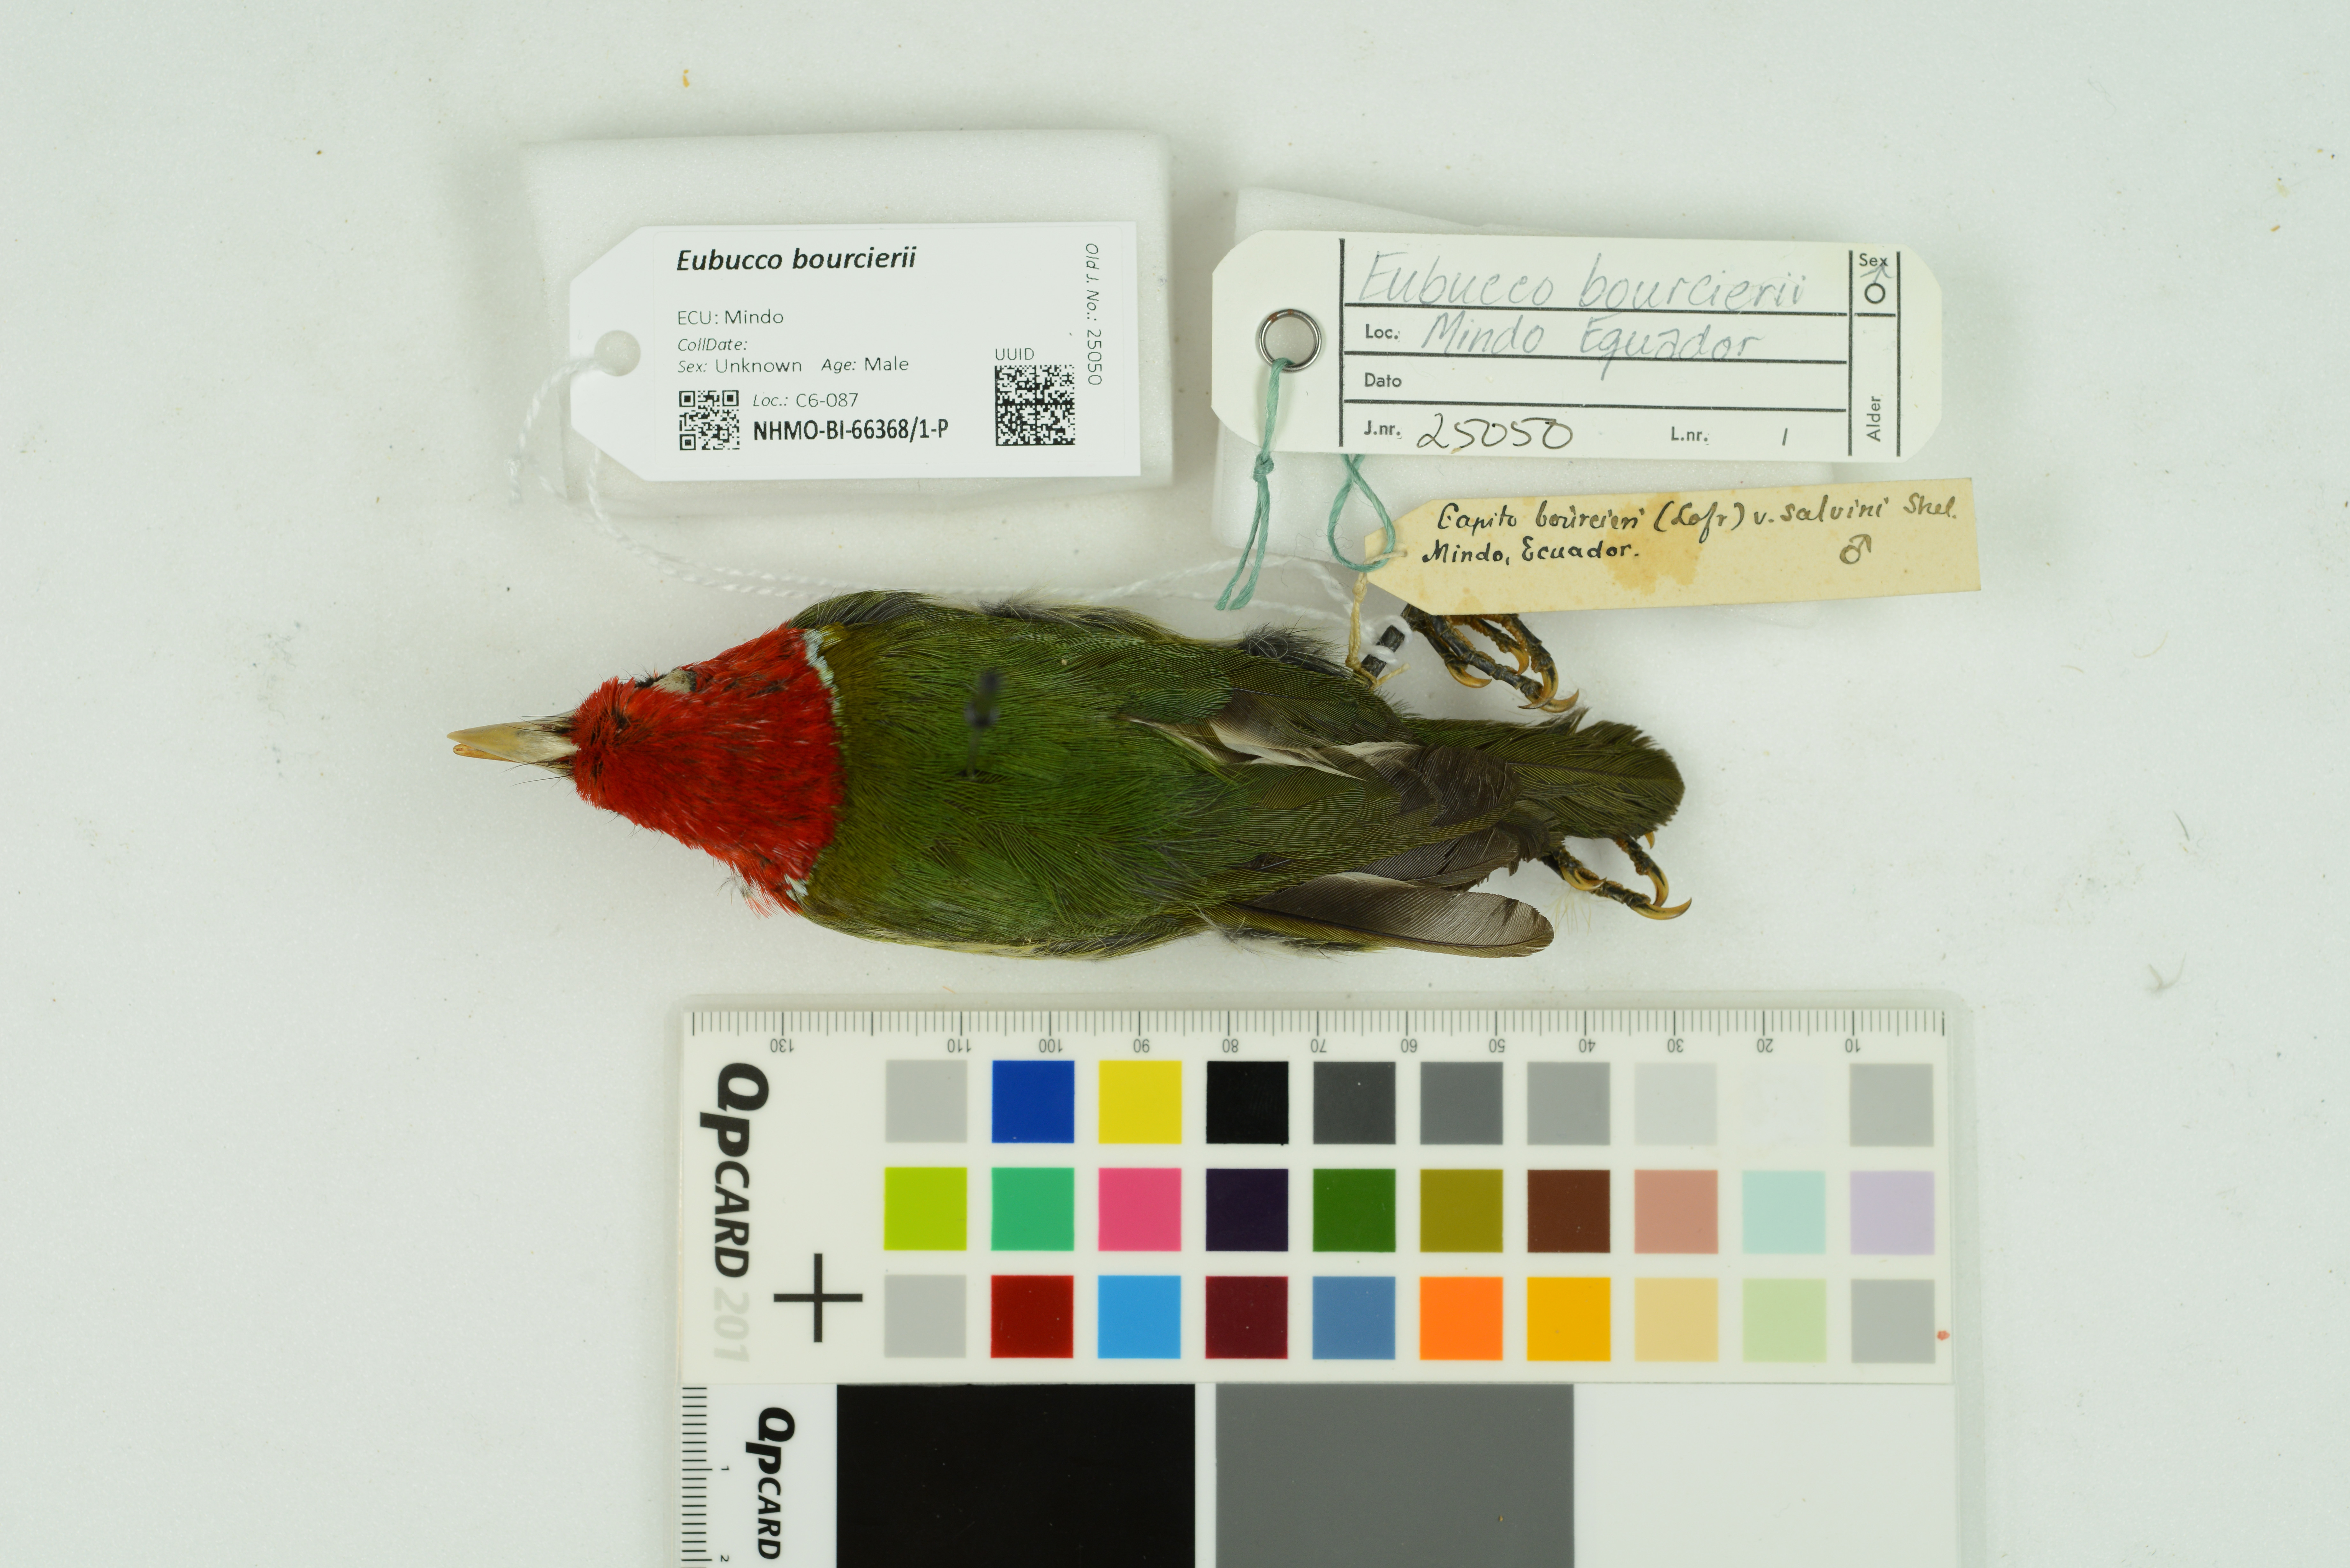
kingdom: Animalia
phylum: Chordata
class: Aves
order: Piciformes
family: Capitonidae
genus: Eubucco
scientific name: Eubucco bourcierii
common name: Red-headed barbet
